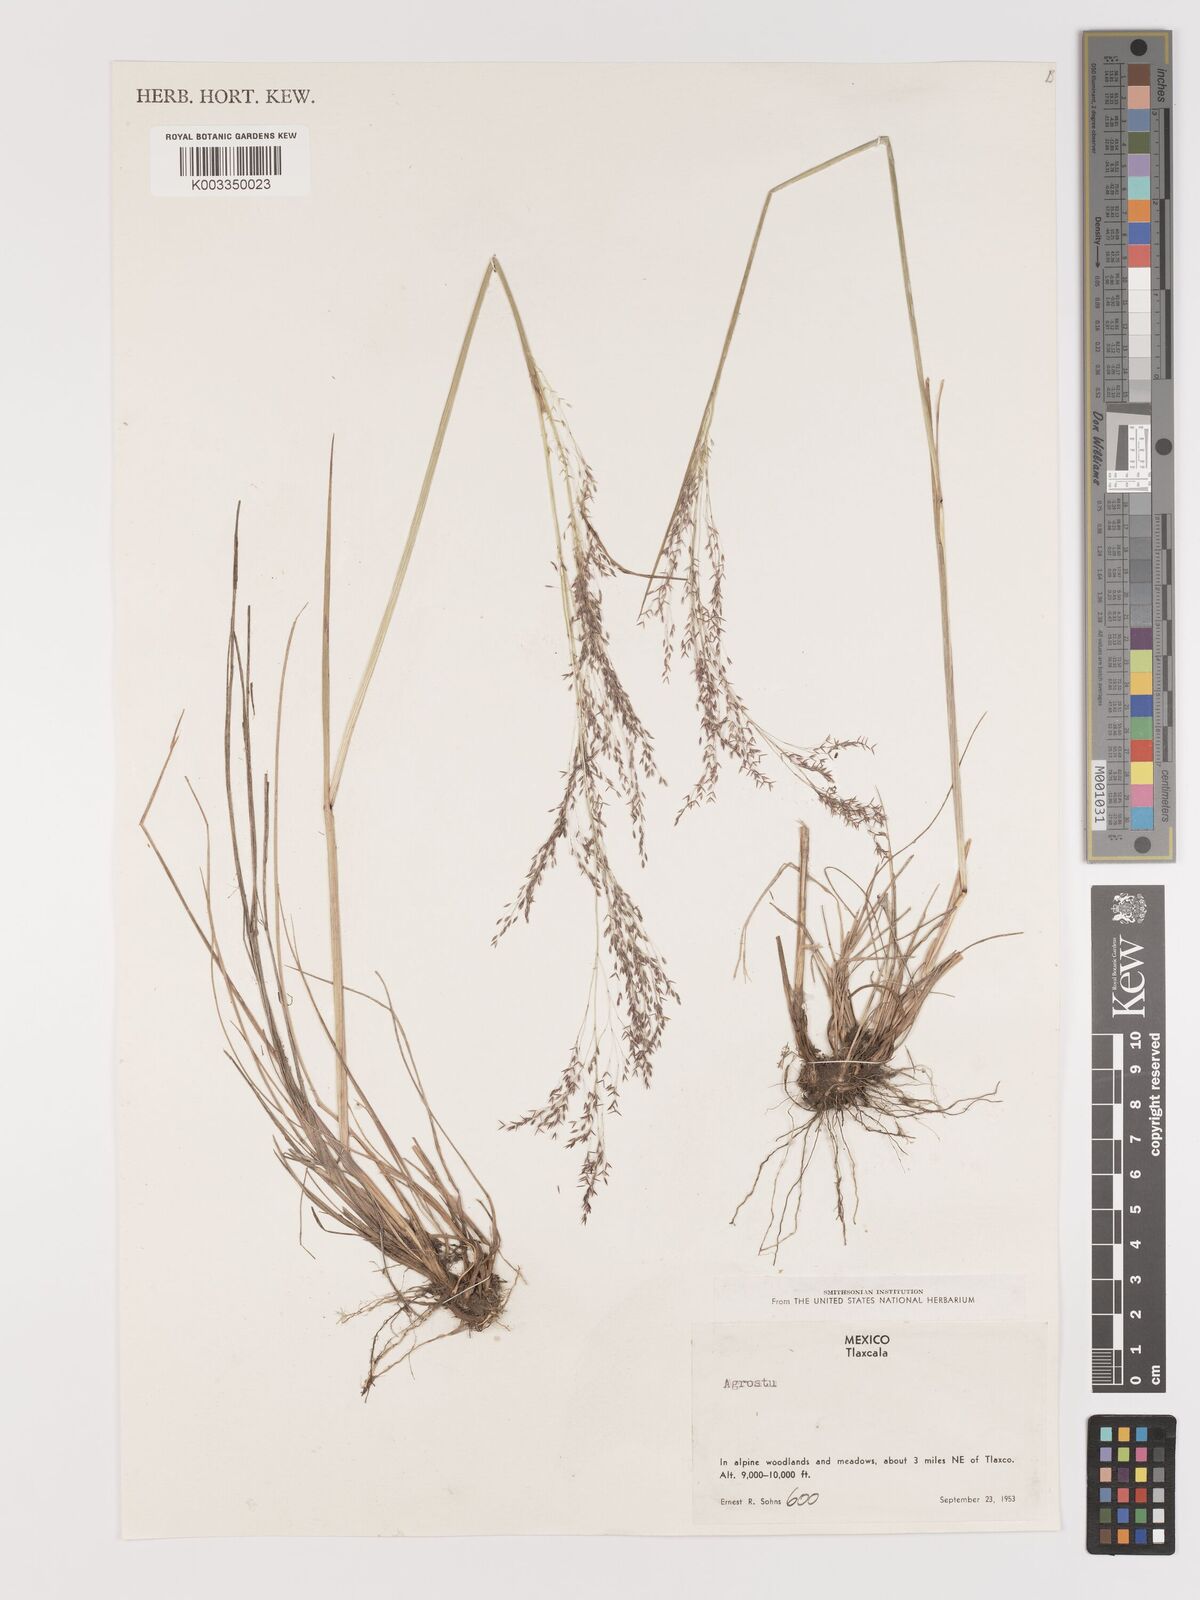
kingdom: Plantae
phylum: Tracheophyta
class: Liliopsida
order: Poales
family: Poaceae
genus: Agrostis
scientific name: Agrostis
